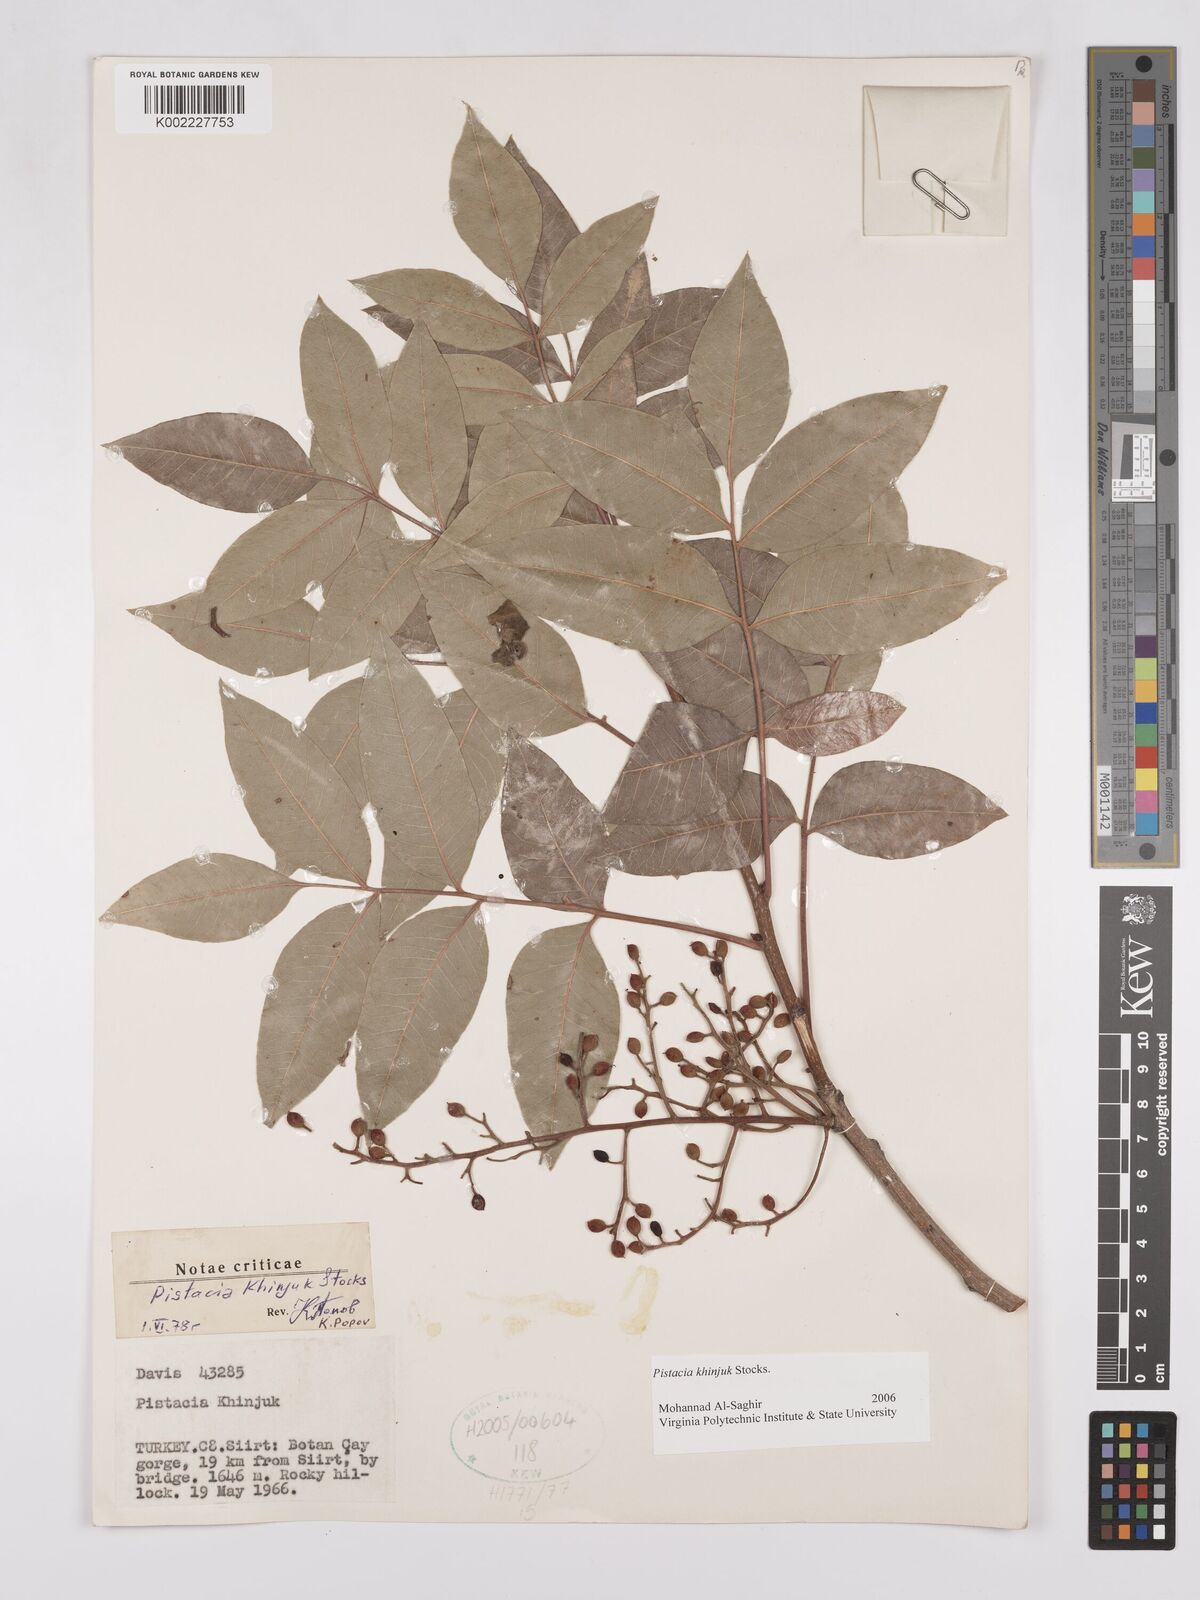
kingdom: Plantae
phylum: Tracheophyta
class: Magnoliopsida
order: Sapindales
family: Anacardiaceae
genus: Pistacia
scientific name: Pistacia
